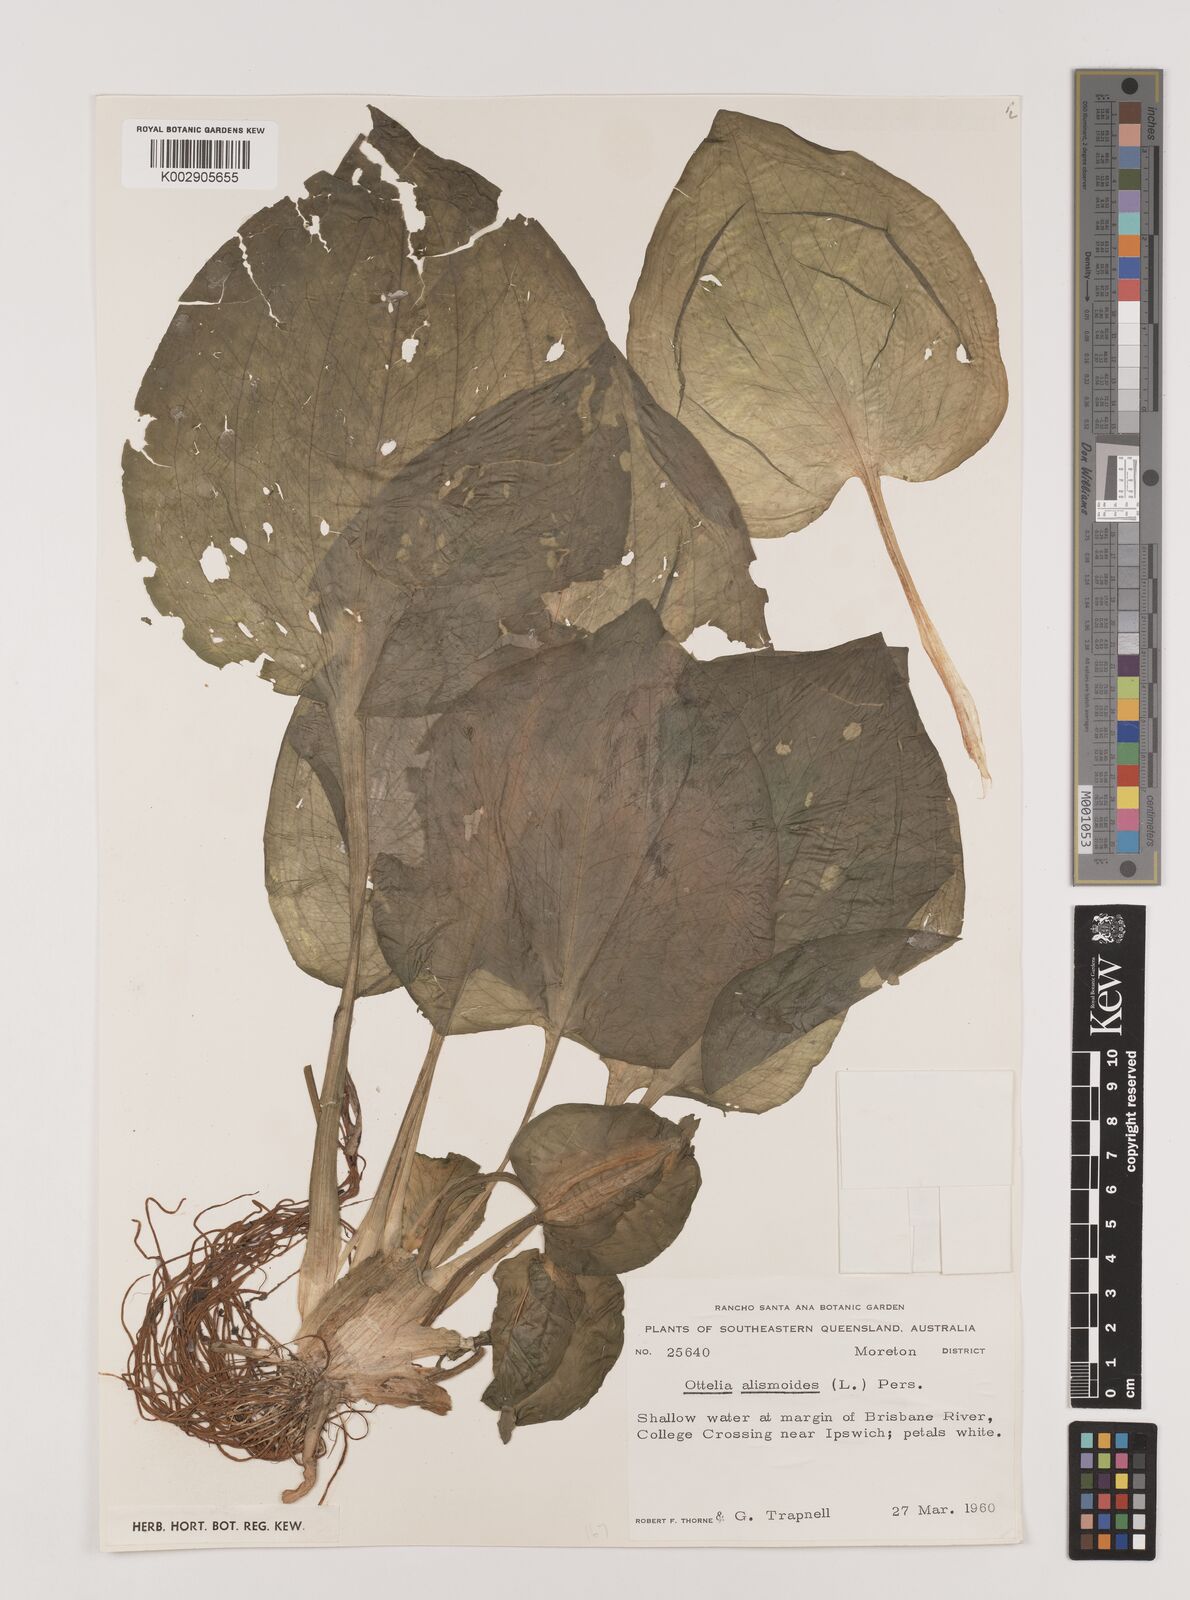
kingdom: Plantae
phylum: Tracheophyta
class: Liliopsida
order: Alismatales
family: Hydrocharitaceae
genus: Ottelia
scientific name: Ottelia alismoides
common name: Duck-lettuce
